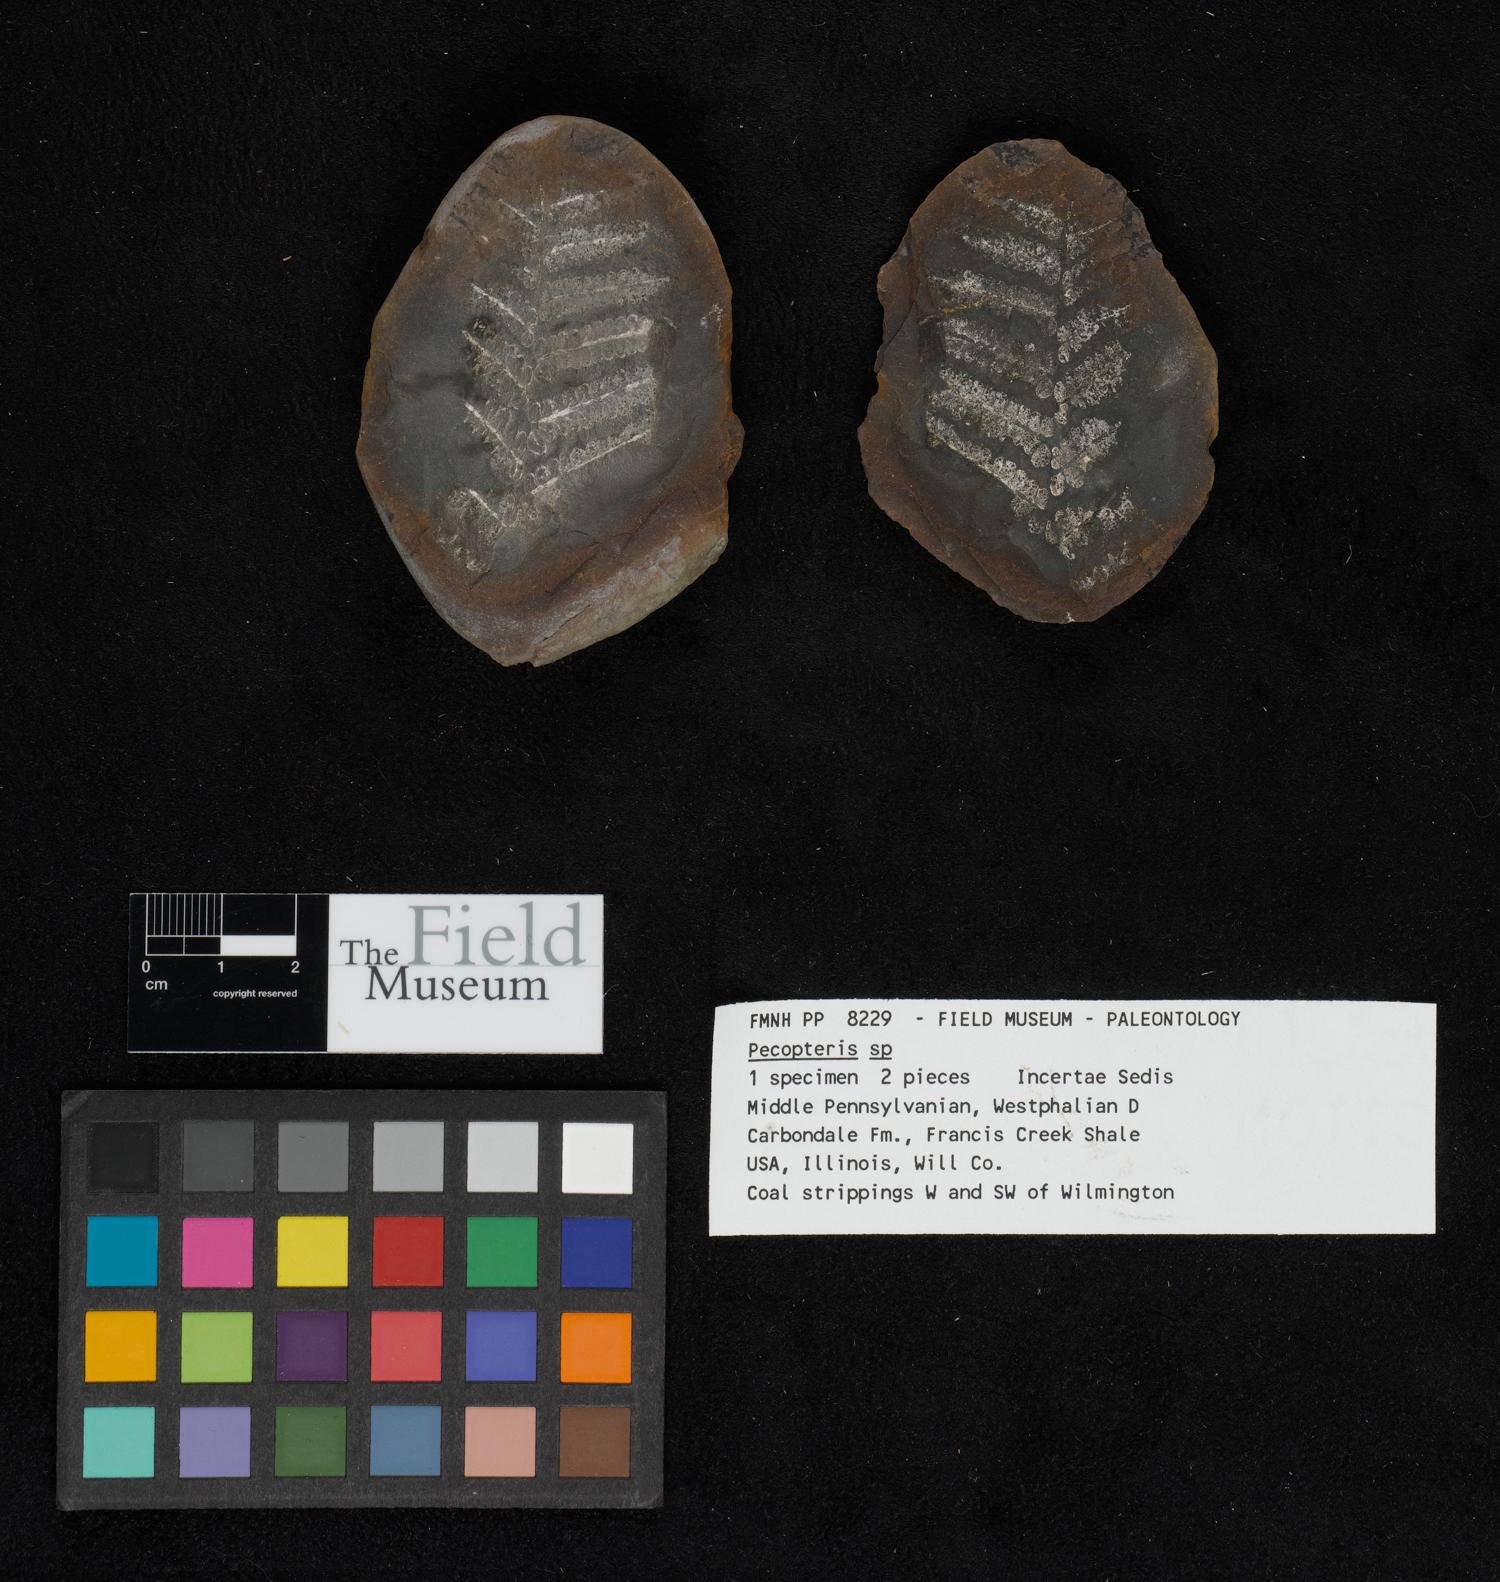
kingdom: Plantae
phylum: Tracheophyta
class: Polypodiopsida
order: Marattiales
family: Asterothecaceae
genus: Pecopteris
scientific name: Pecopteris
